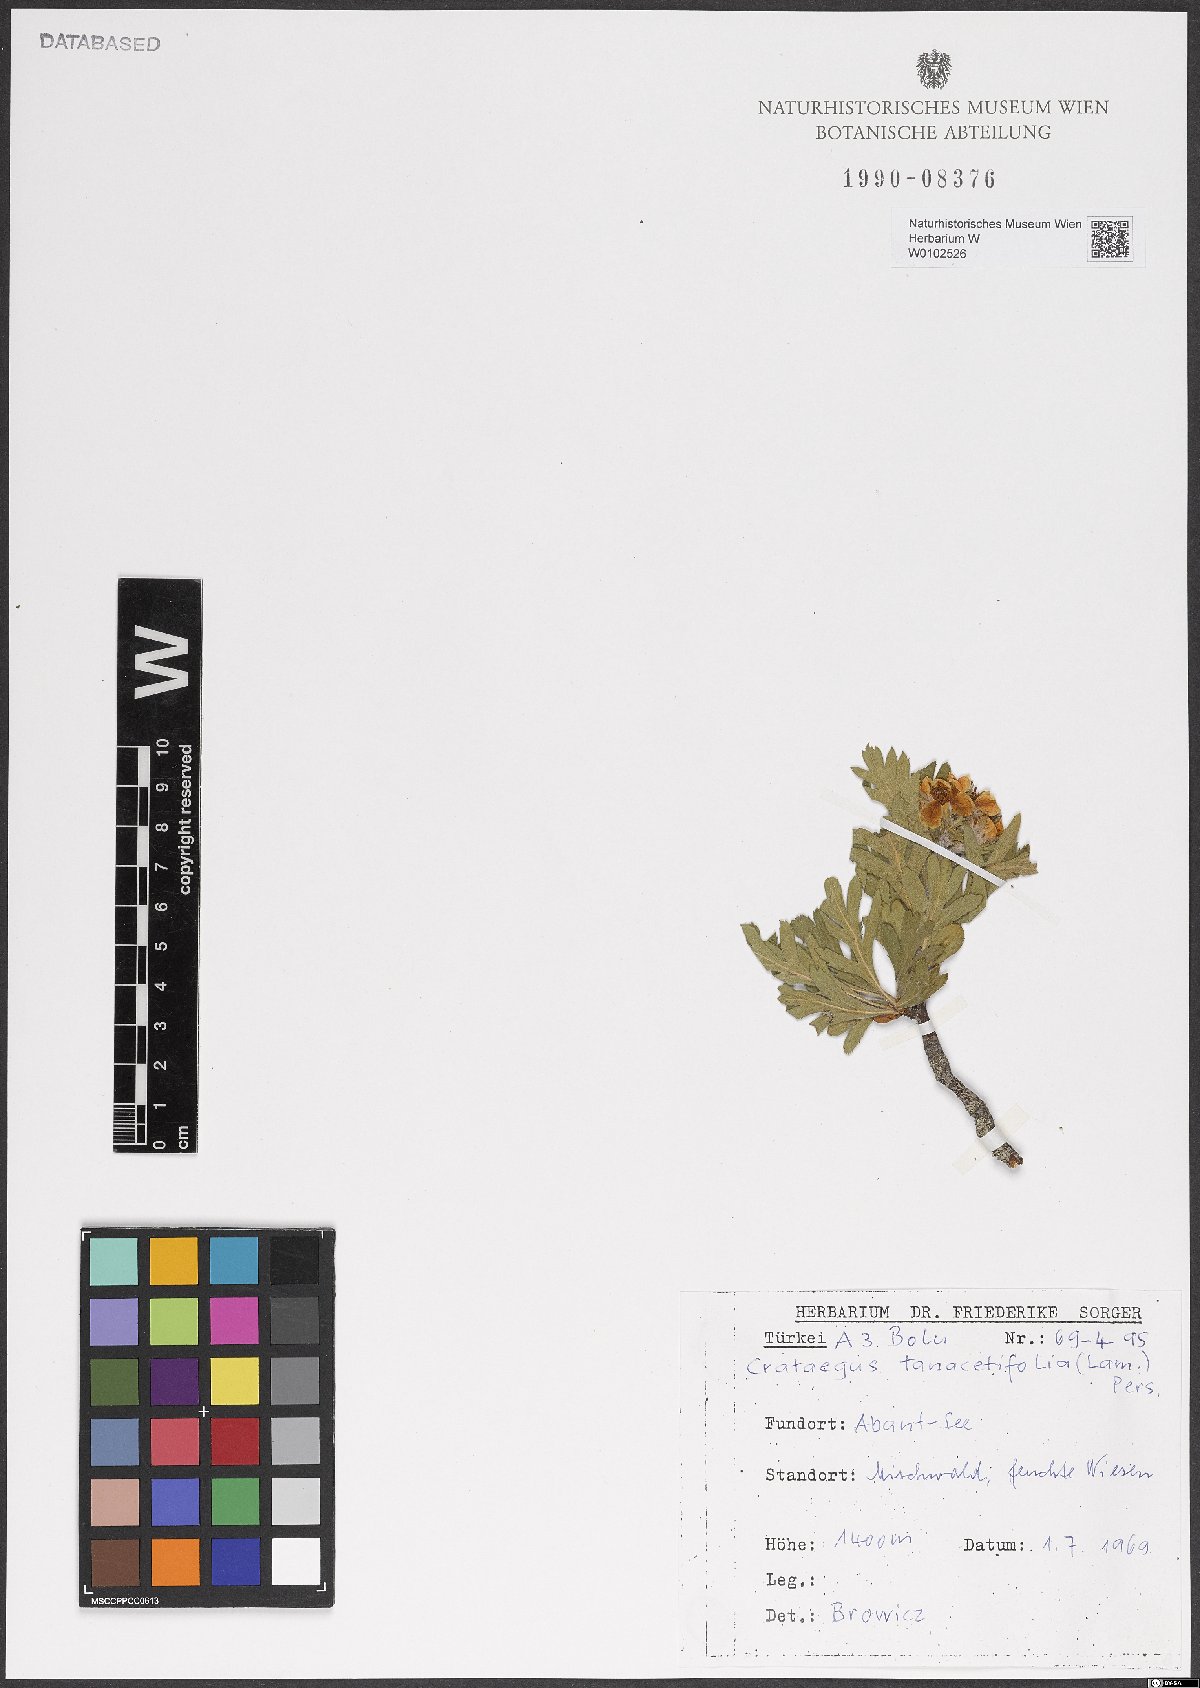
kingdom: Plantae
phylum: Tracheophyta
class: Magnoliopsida
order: Rosales
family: Rosaceae
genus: Crataegus
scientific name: Crataegus tanacetifolia
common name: Tansy-leaved thorn
